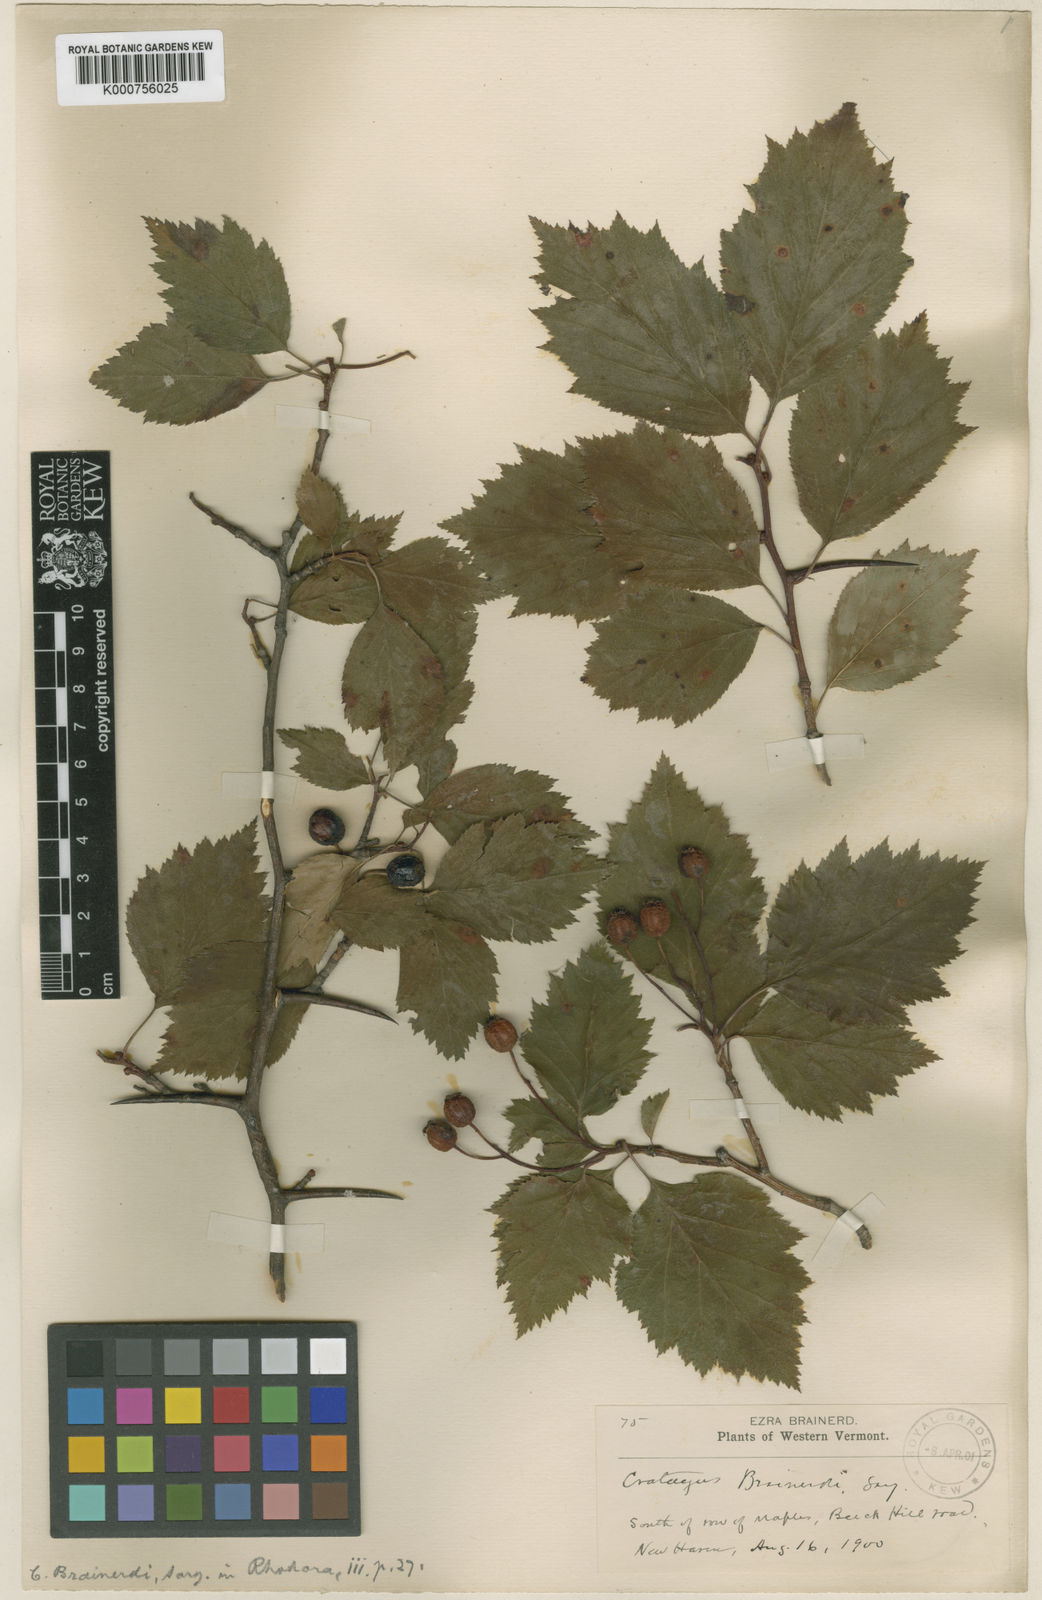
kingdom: Plantae
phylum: Tracheophyta
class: Magnoliopsida
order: Rosales
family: Rosaceae
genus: Crataegus
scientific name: Crataegus scabrida
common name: Rough hawthorn
